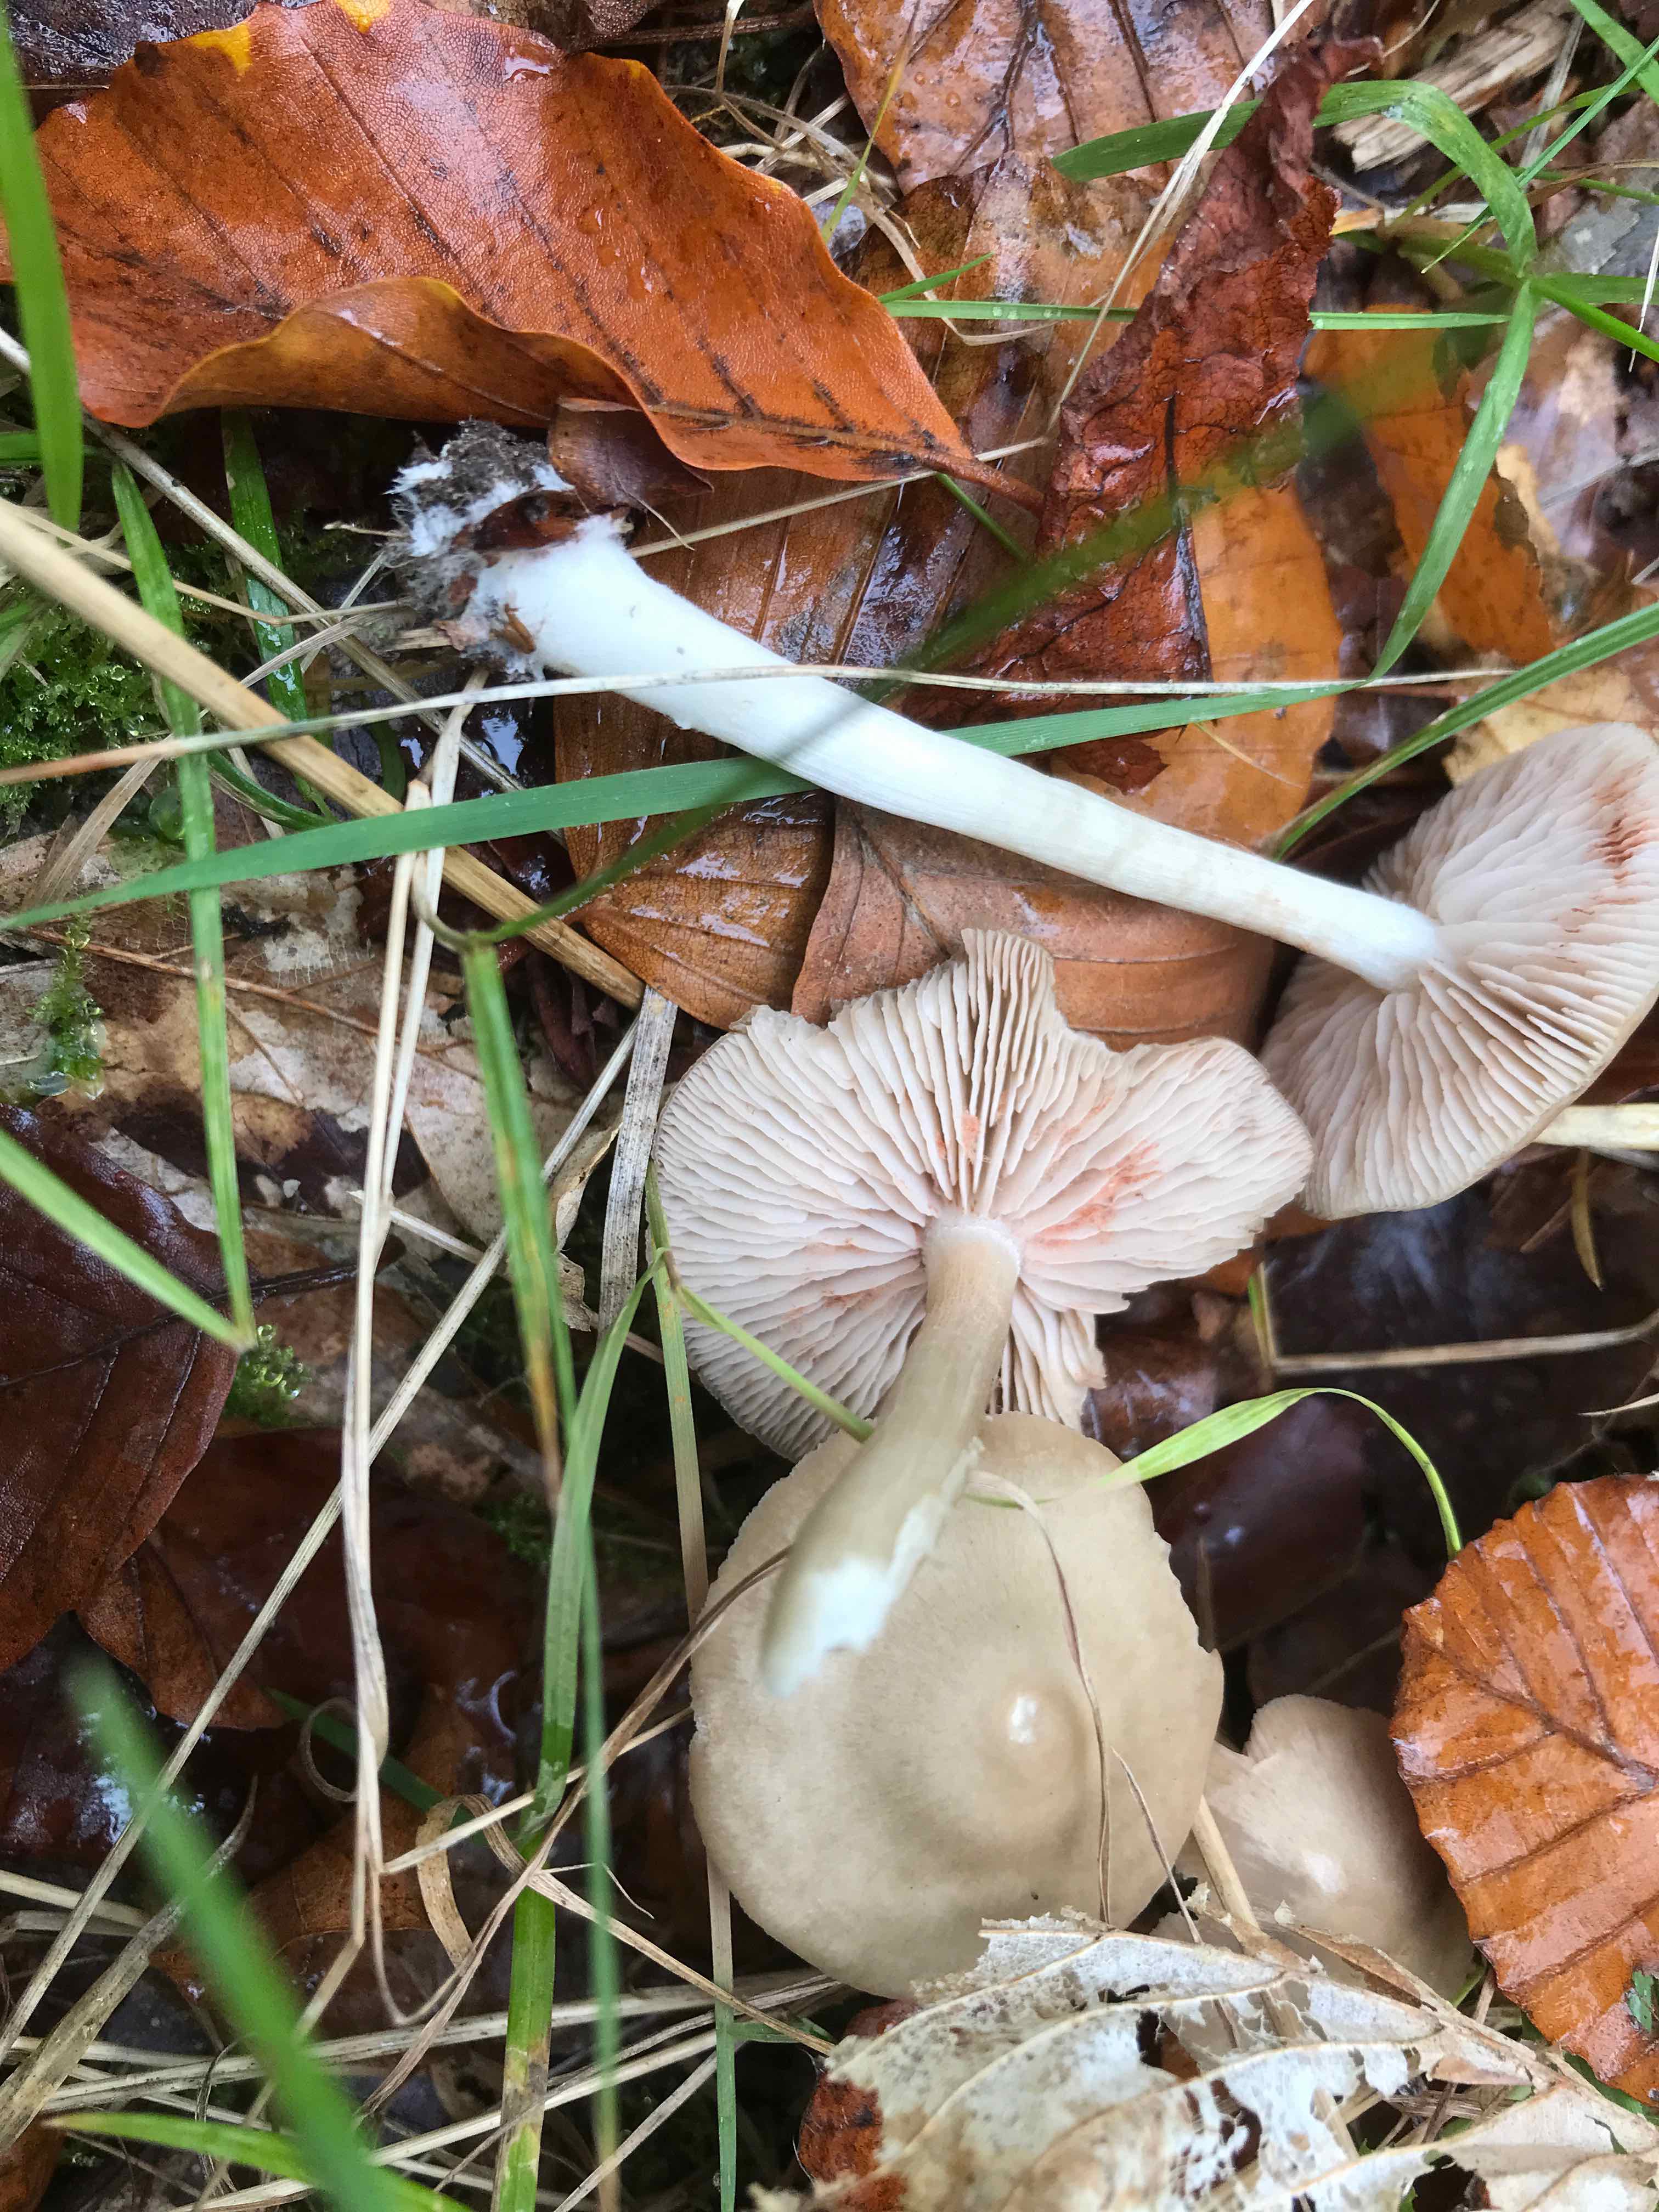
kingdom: Fungi
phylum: Basidiomycota
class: Agaricomycetes
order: Agaricales
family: Entolomataceae
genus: Entoloma
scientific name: Entoloma
